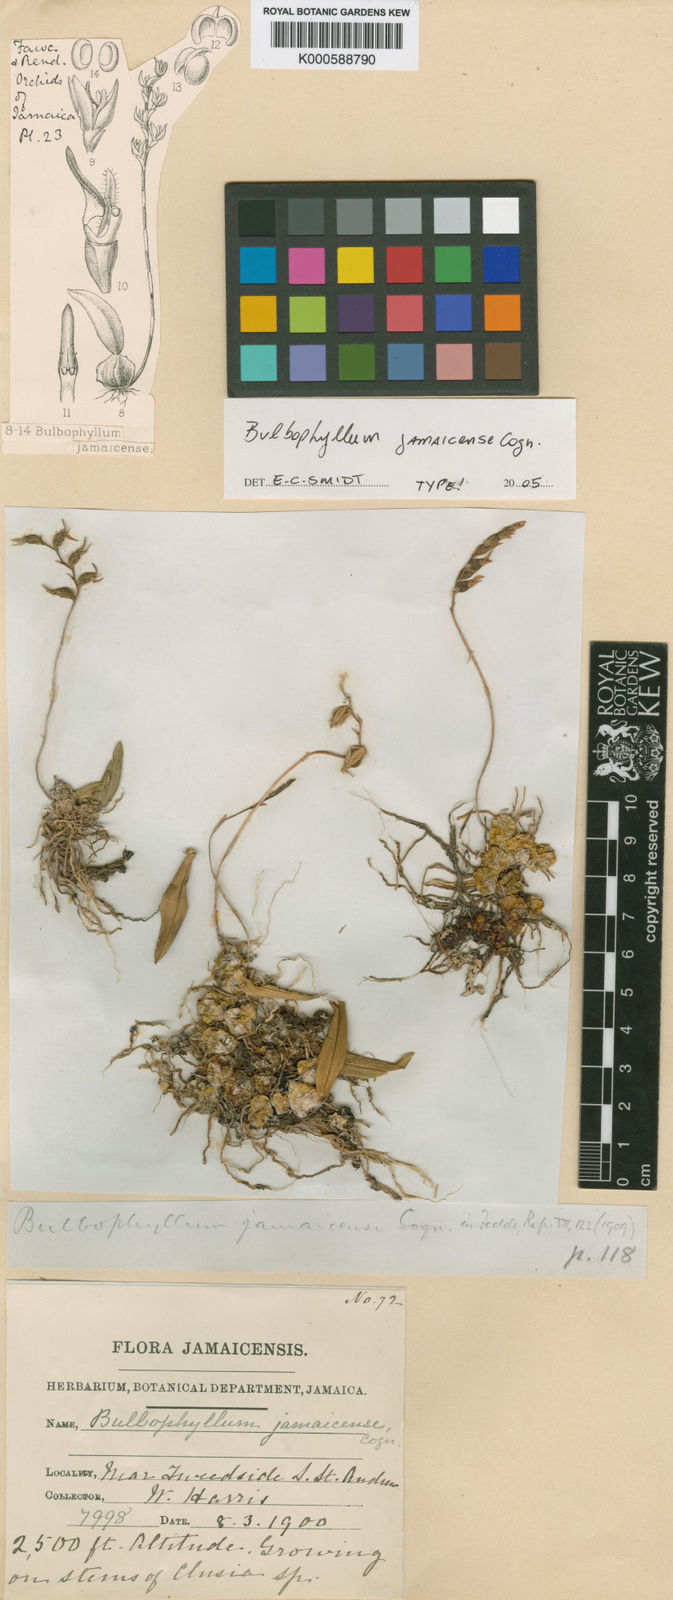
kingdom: Plantae
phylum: Tracheophyta
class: Liliopsida
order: Asparagales
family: Orchidaceae
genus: Bulbophyllum
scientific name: Bulbophyllum jamaicense
